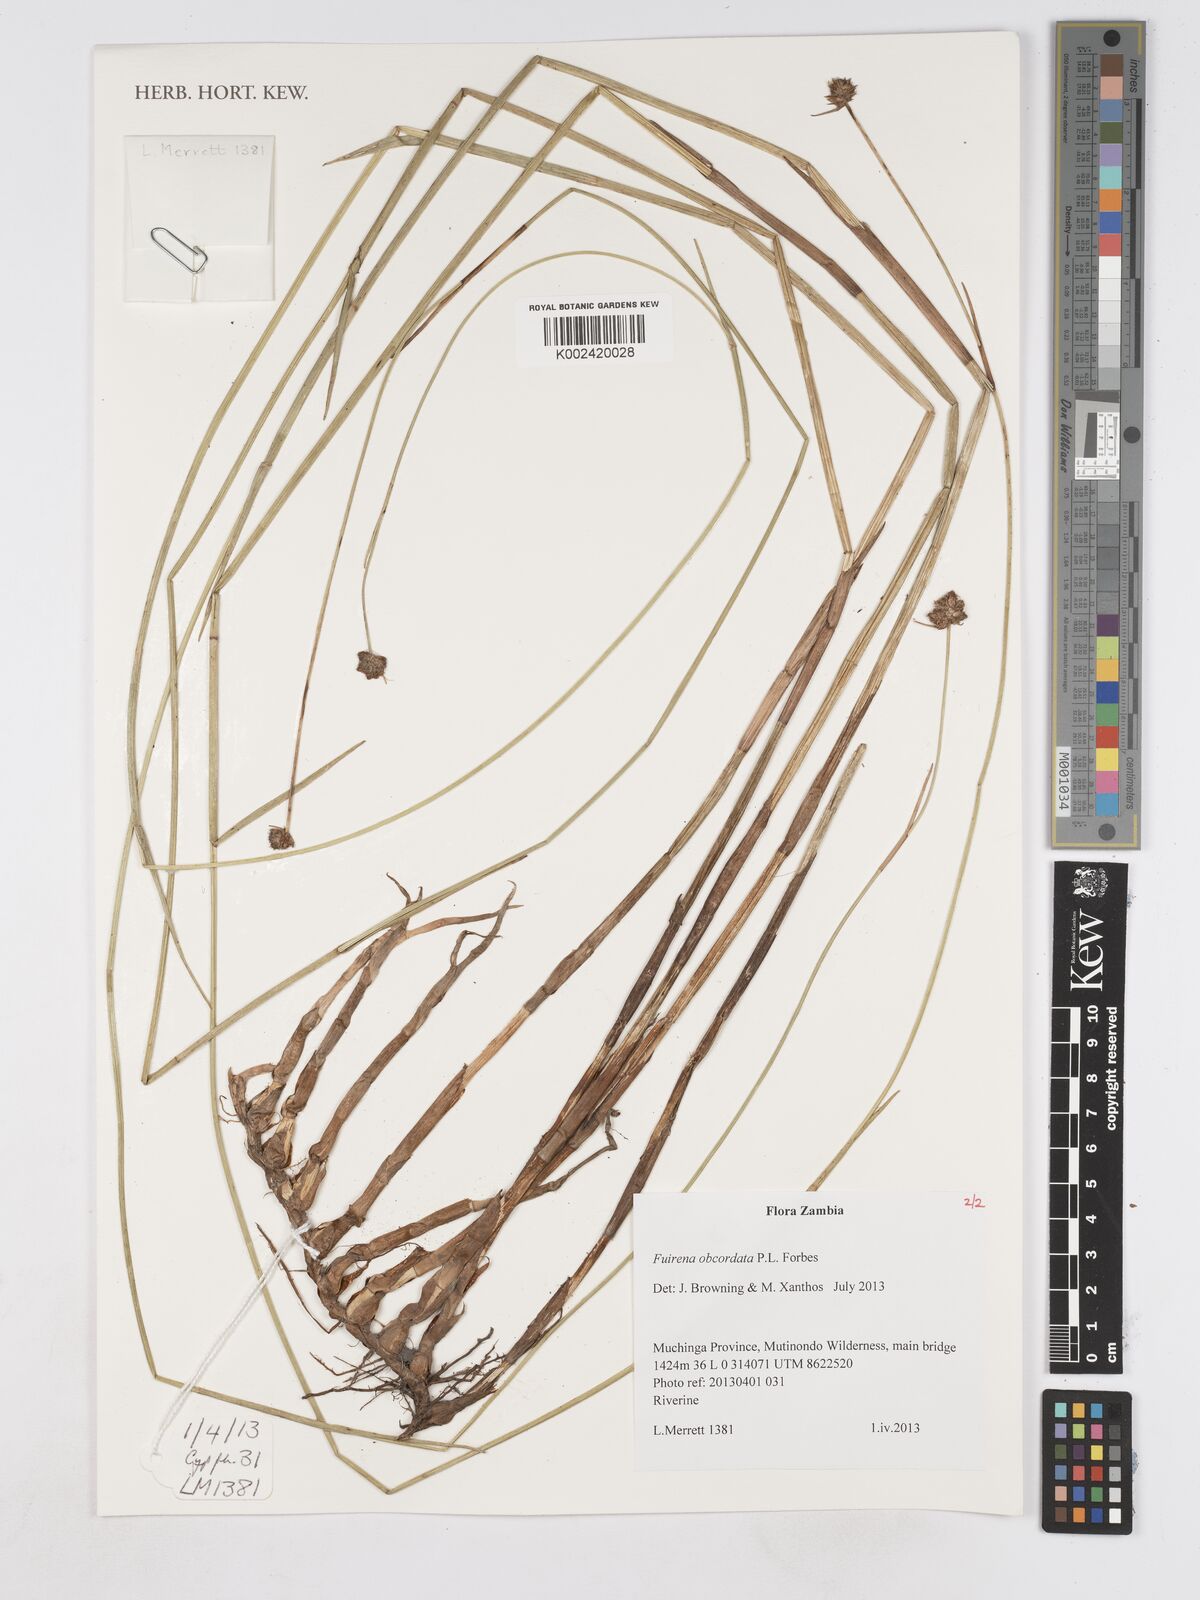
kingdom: Plantae
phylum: Tracheophyta
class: Liliopsida
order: Poales
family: Cyperaceae
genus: Fuirena
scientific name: Fuirena obcordata
